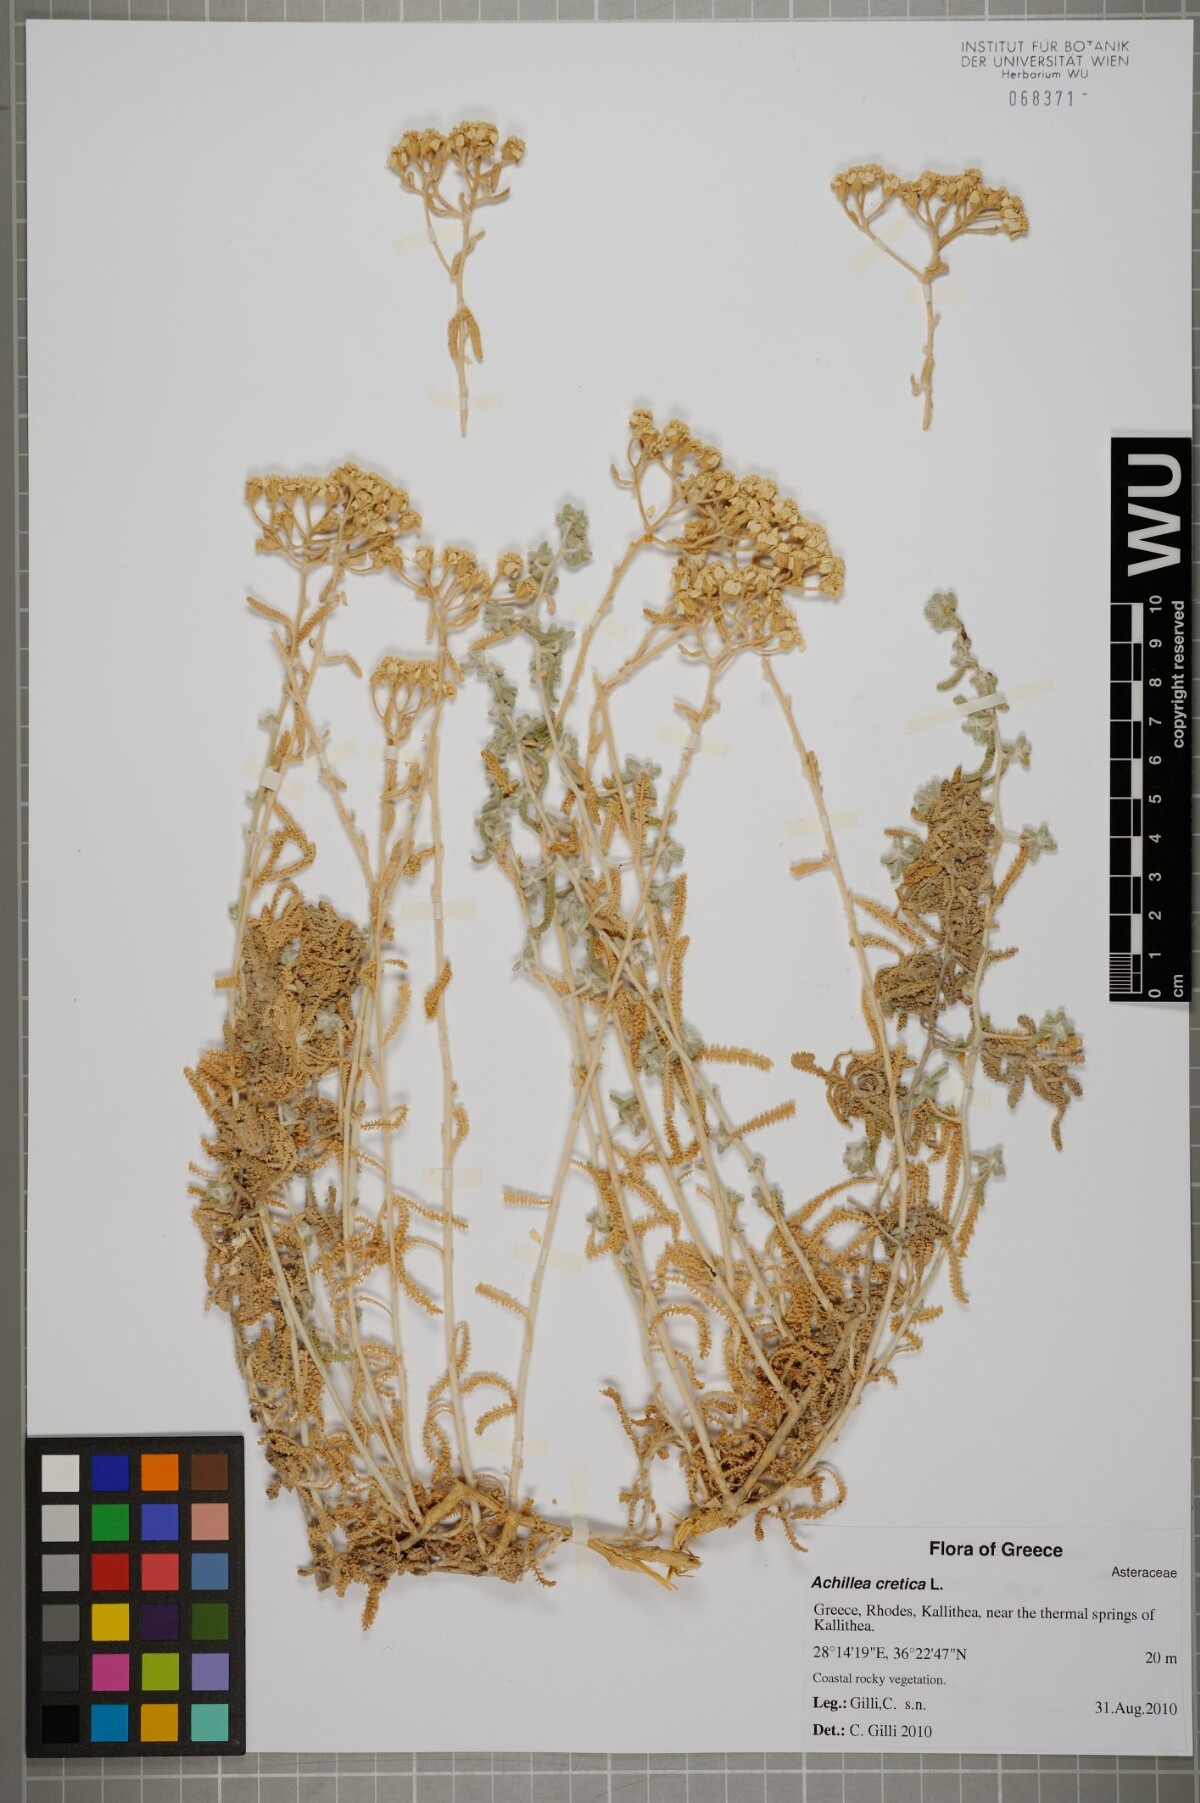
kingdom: Plantae
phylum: Tracheophyta
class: Magnoliopsida
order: Asterales
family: Asteraceae
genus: Achillea
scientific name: Achillea cretica
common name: Chamomile-leaved lavender-cotton
